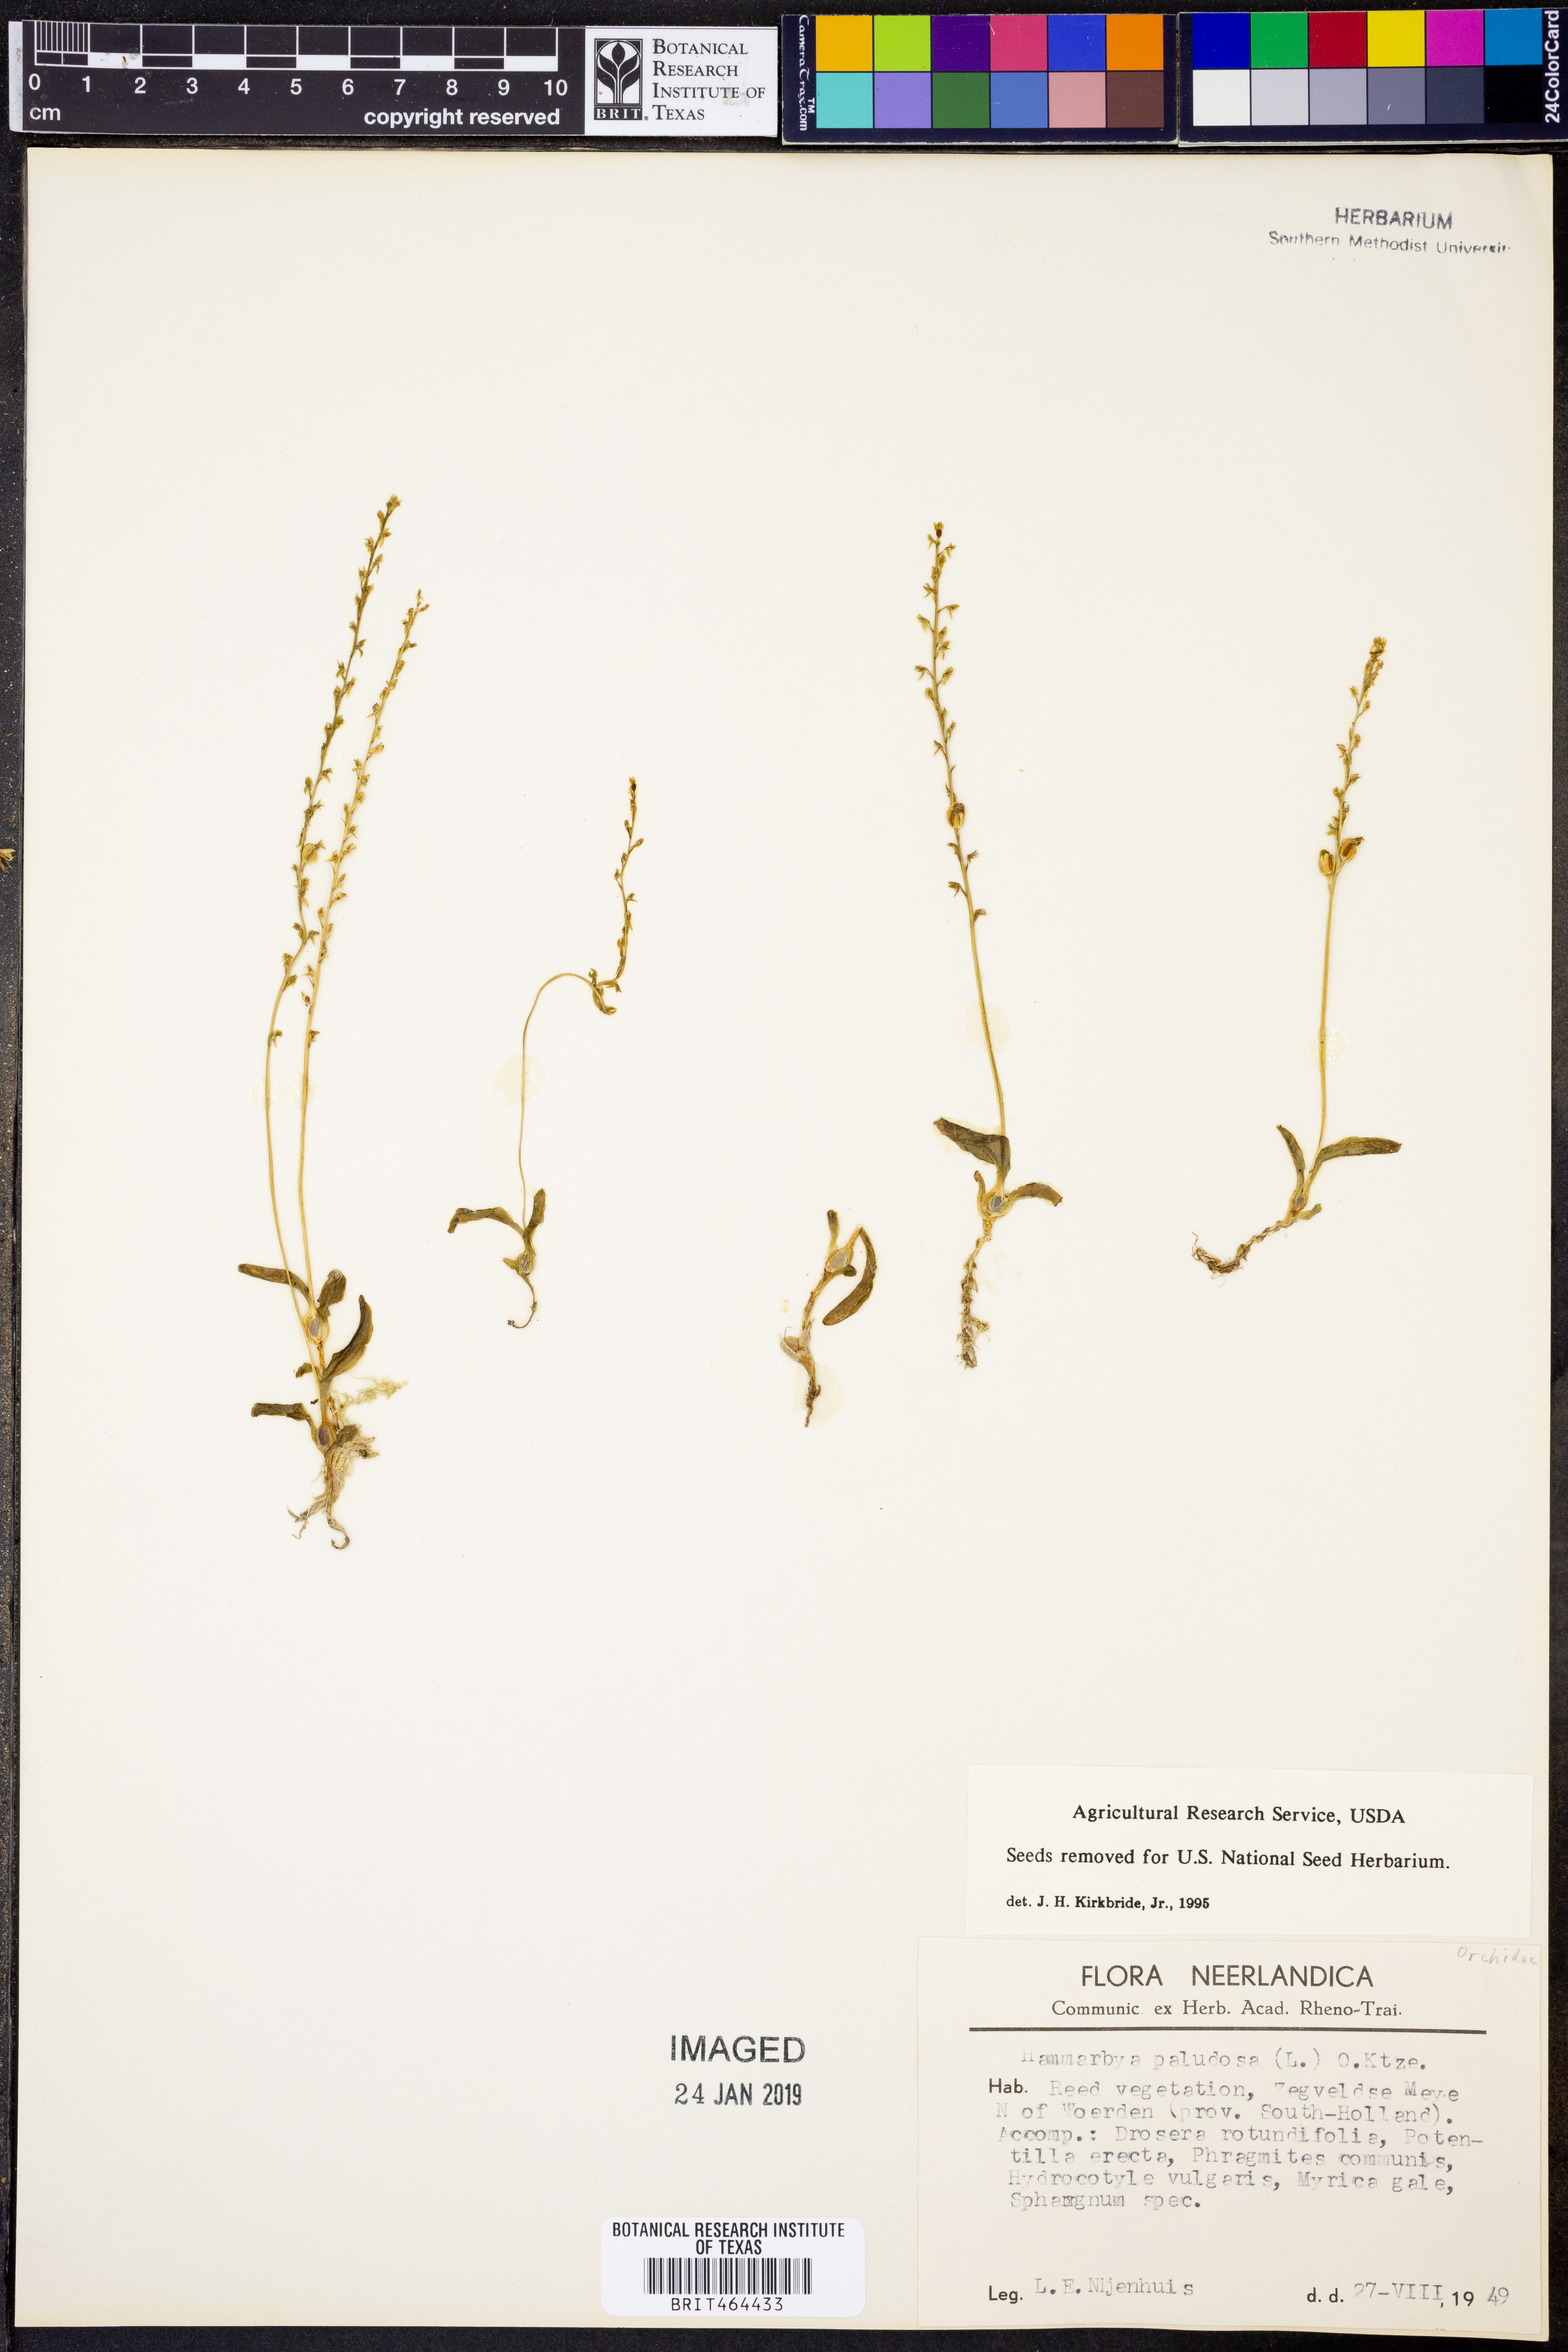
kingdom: Plantae
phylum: Tracheophyta
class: Liliopsida
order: Asparagales
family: Orchidaceae
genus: Hammarbya
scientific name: Hammarbya paludosa
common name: Bog orchid
